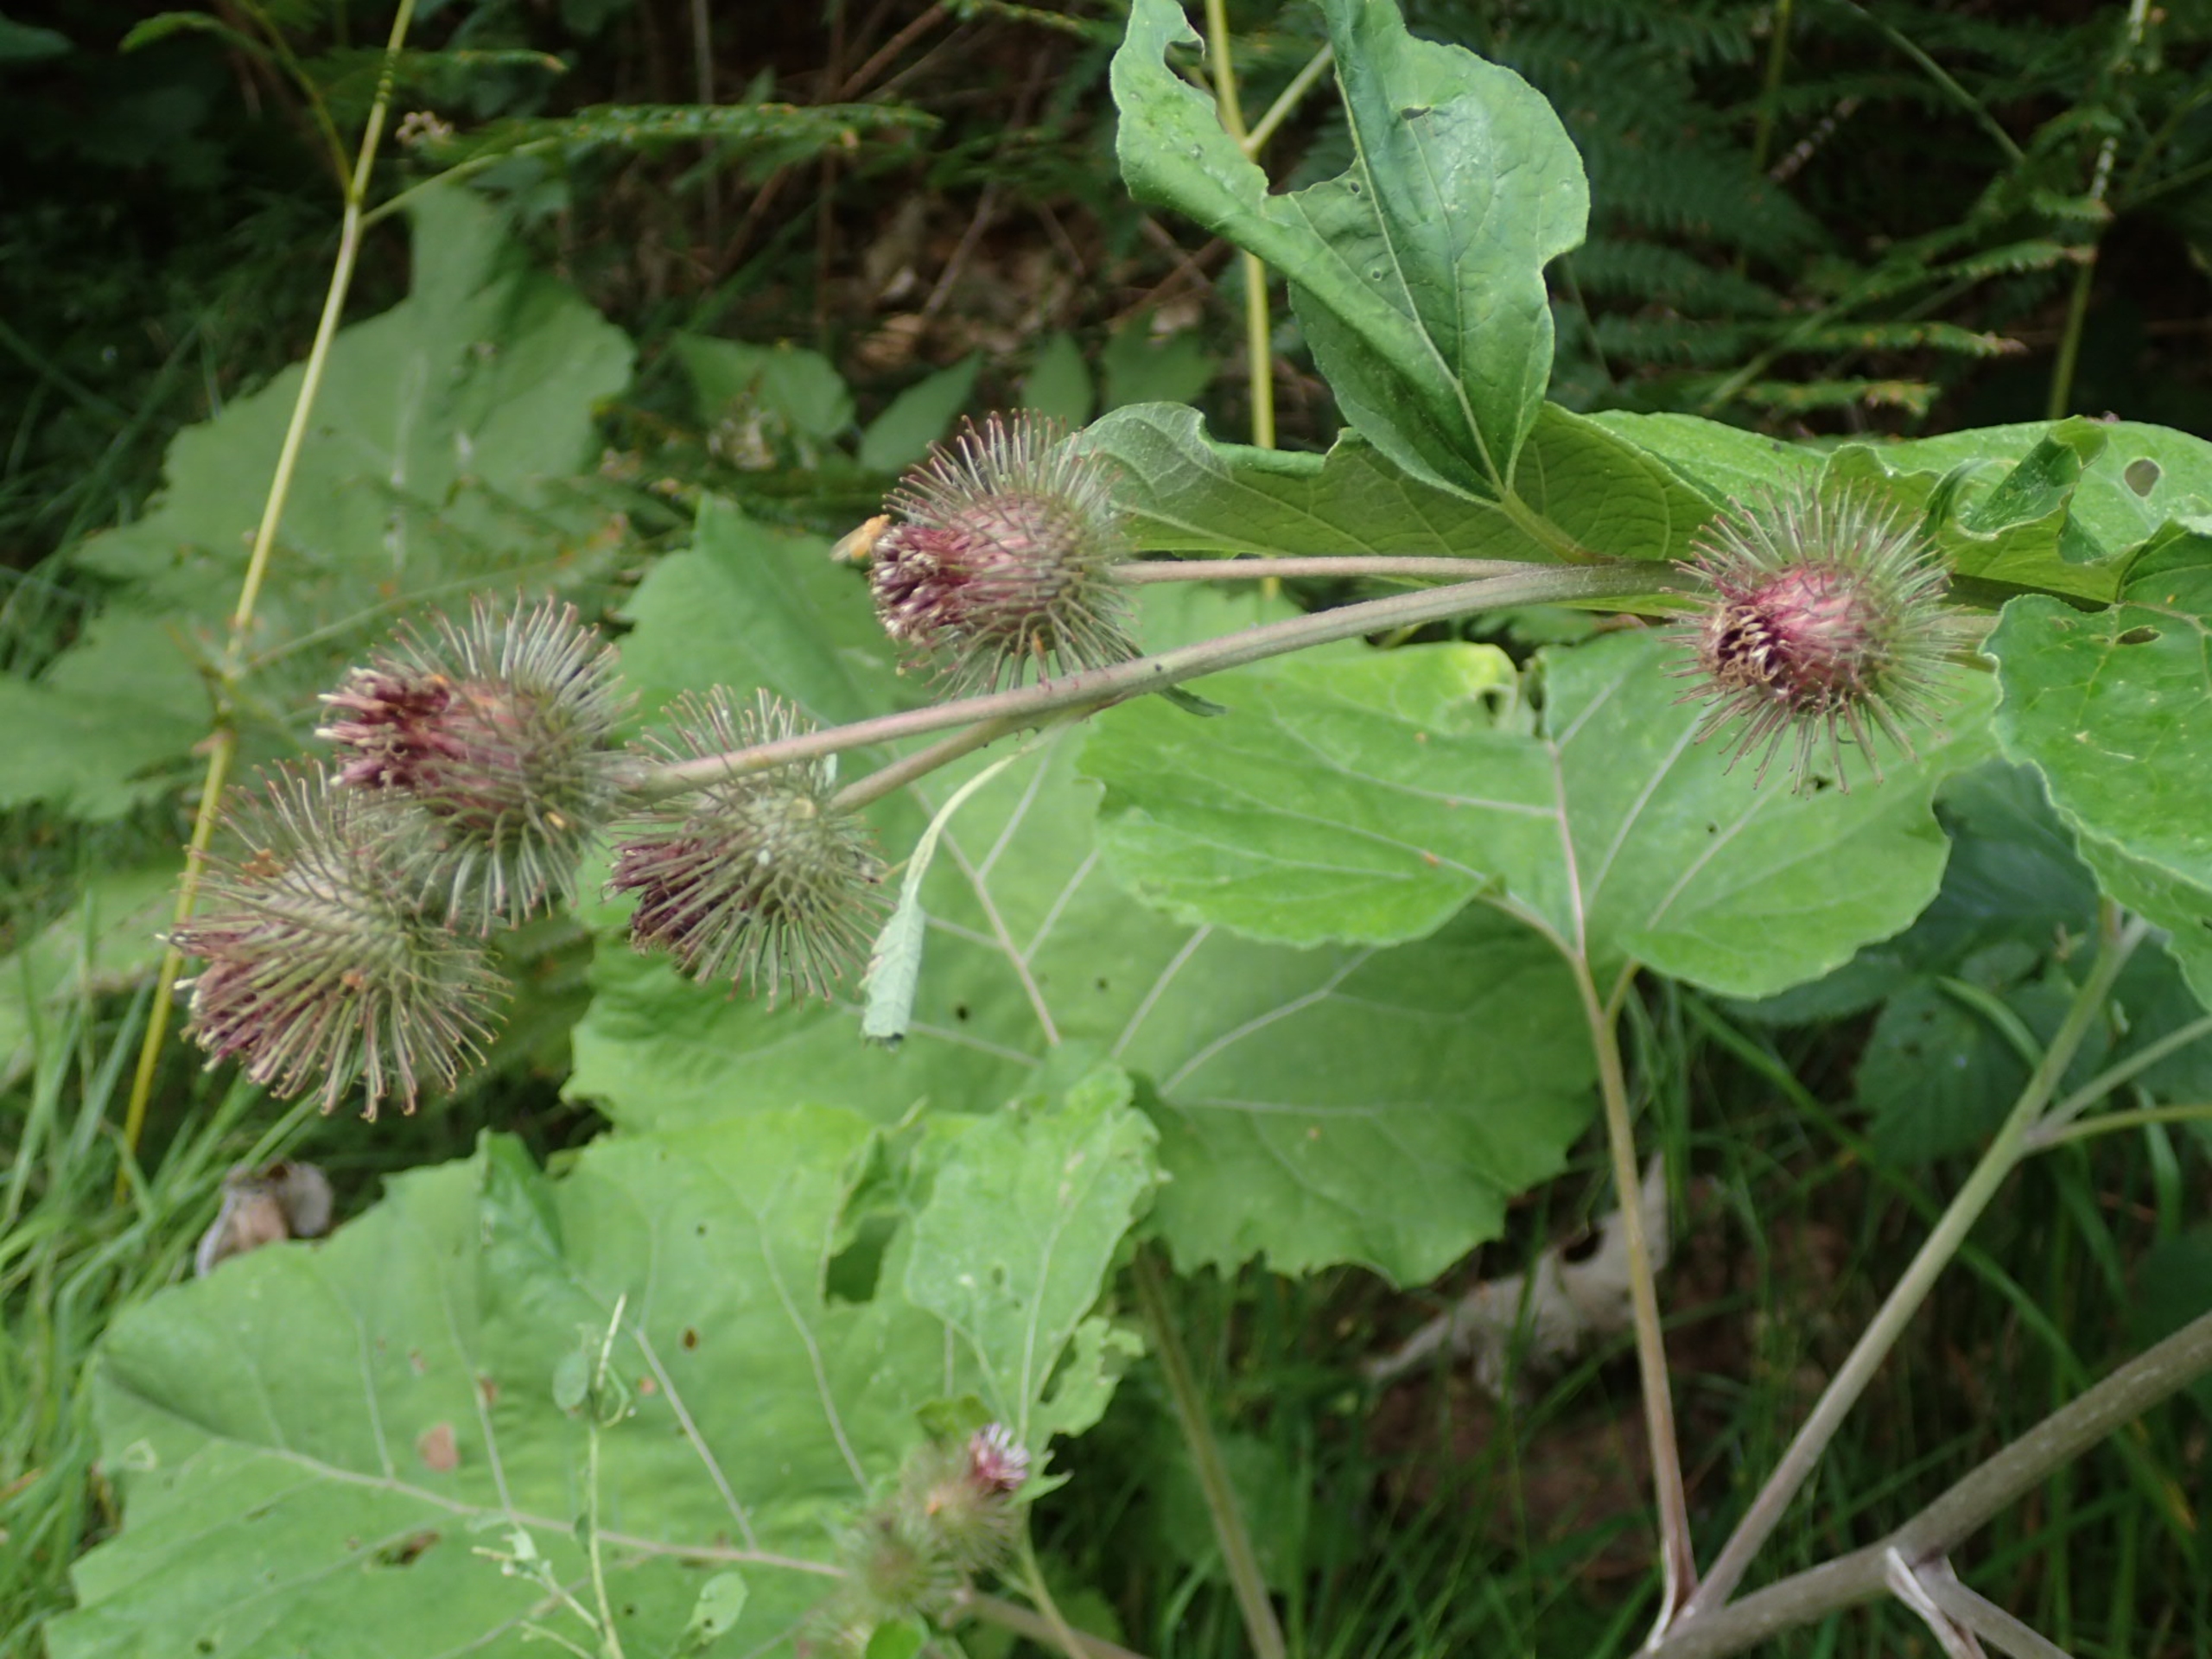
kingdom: Plantae
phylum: Tracheophyta
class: Magnoliopsida
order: Asterales
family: Asteraceae
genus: Arctium
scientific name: Arctium nemorosum
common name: Skov-burre
